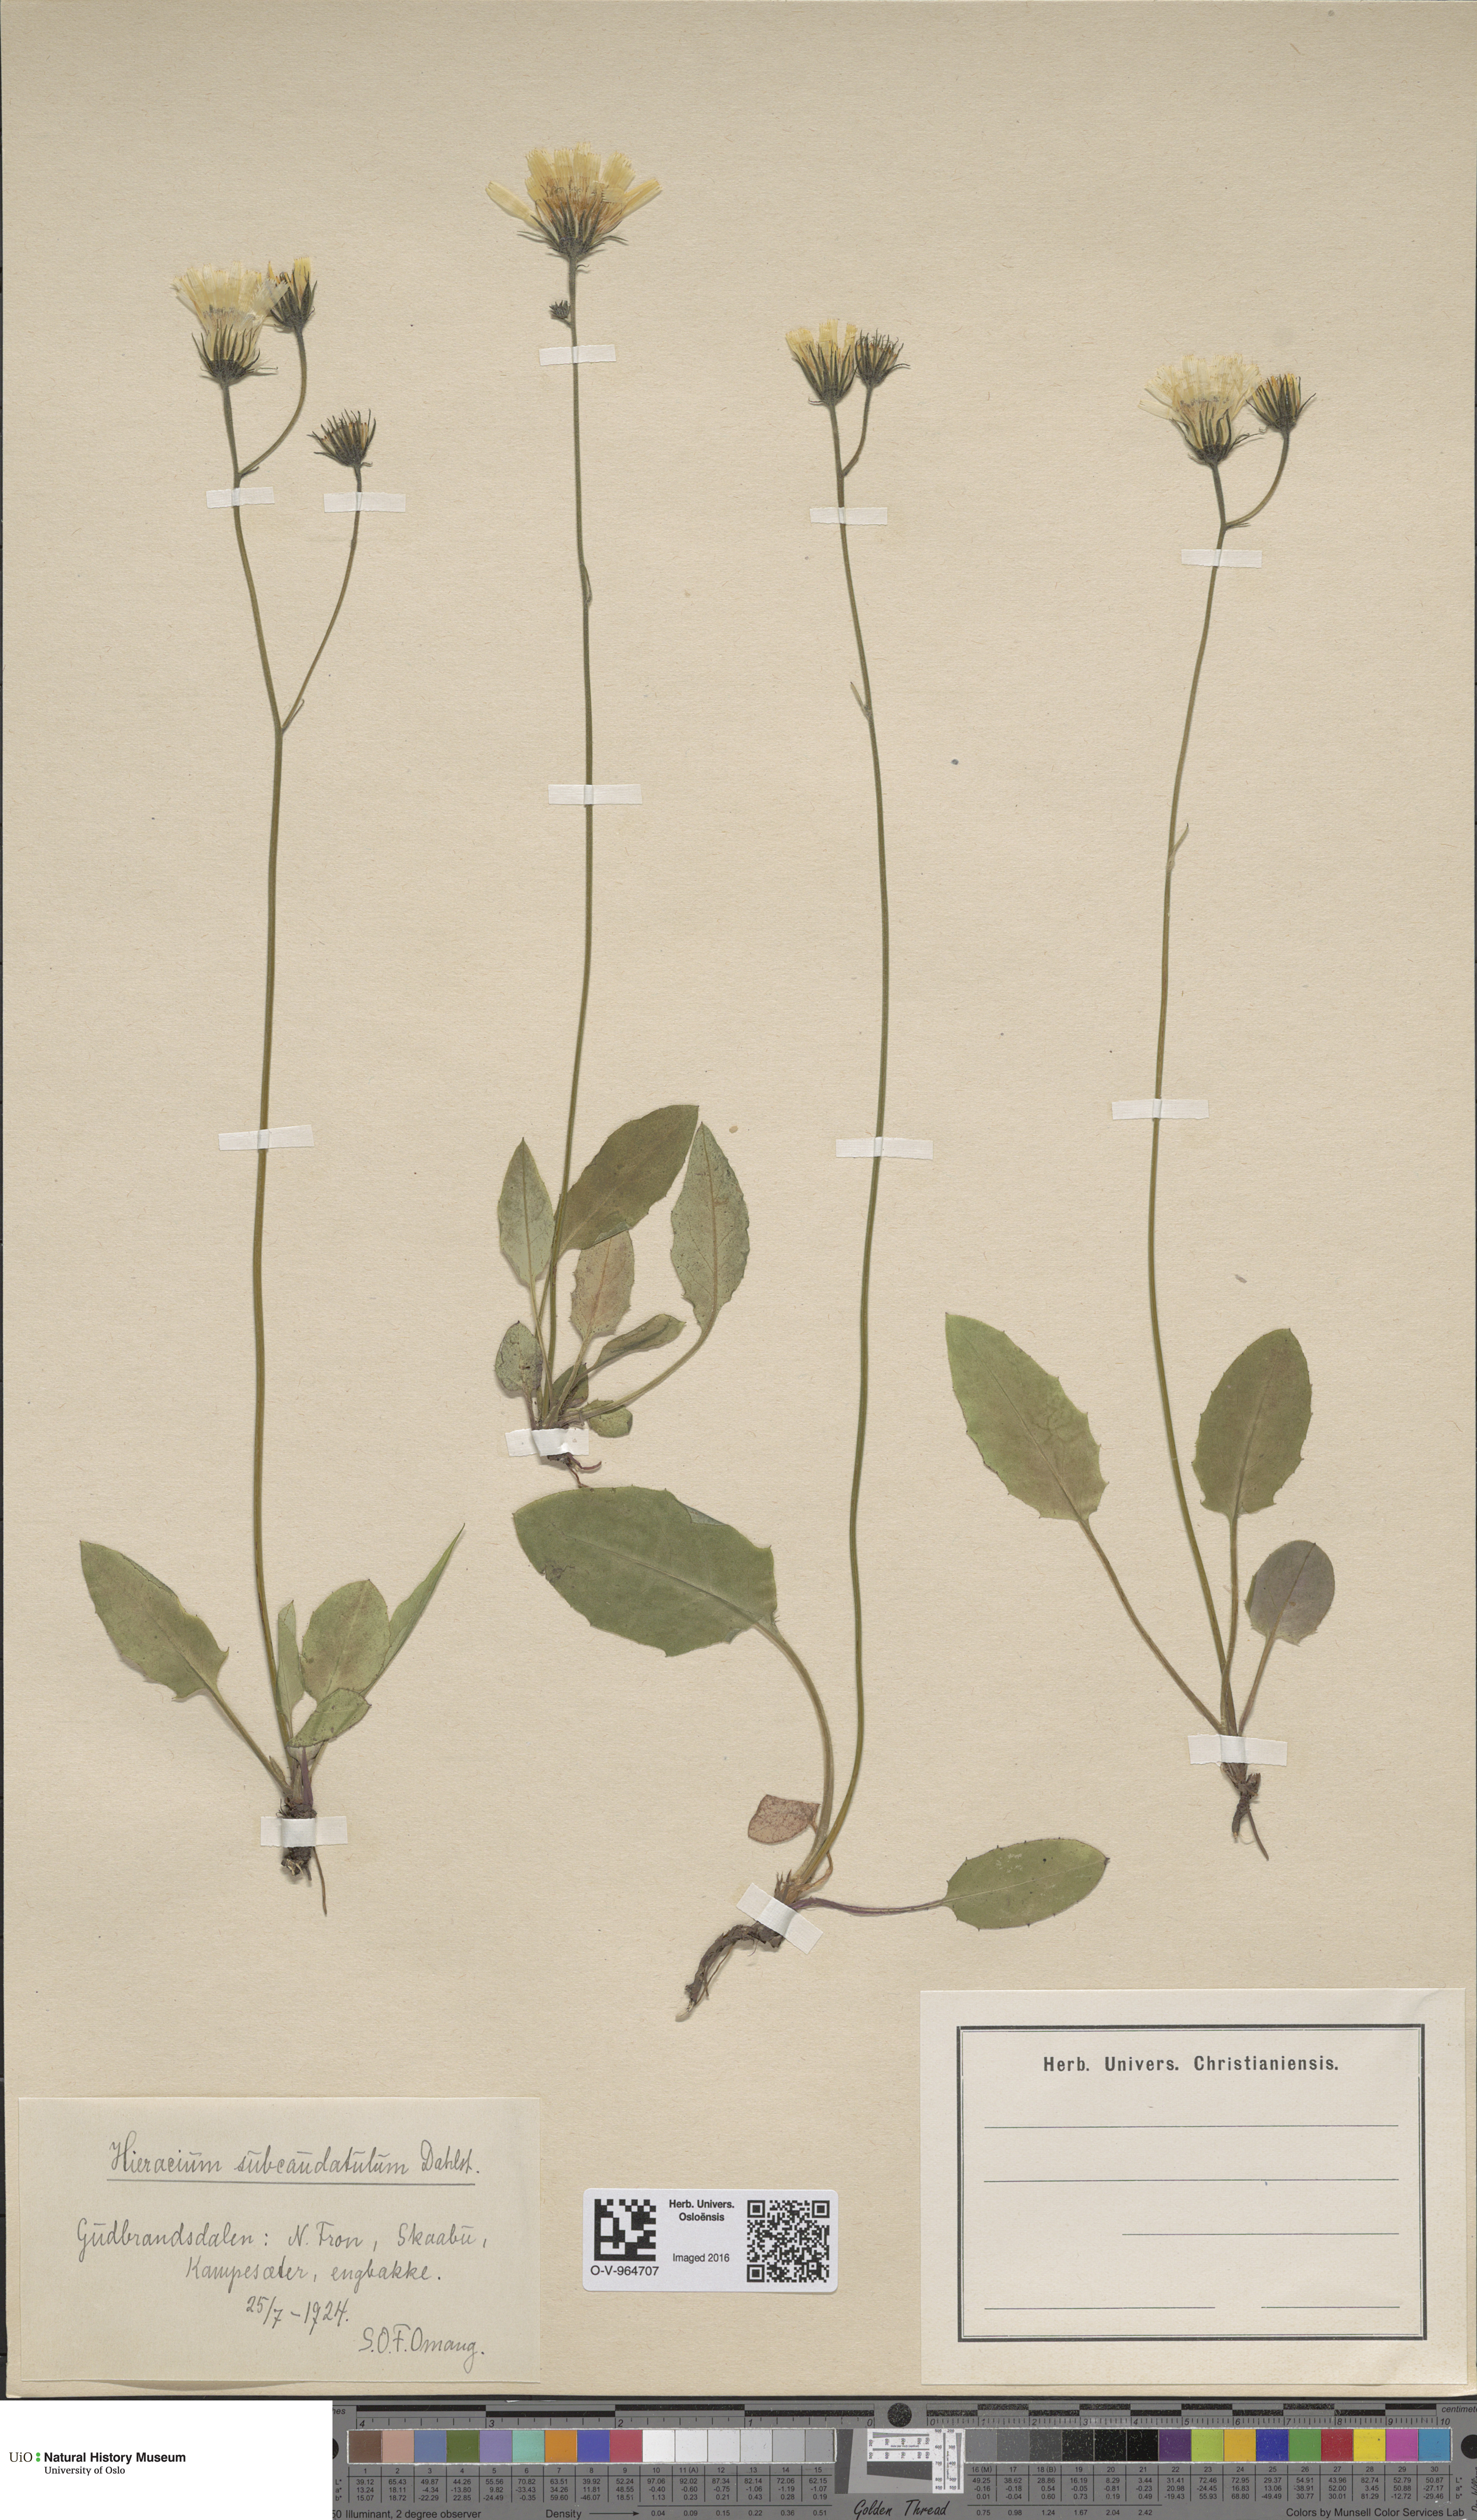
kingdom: Plantae
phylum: Tracheophyta
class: Magnoliopsida
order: Asterales
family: Asteraceae
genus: Hieracium
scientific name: Hieracium
